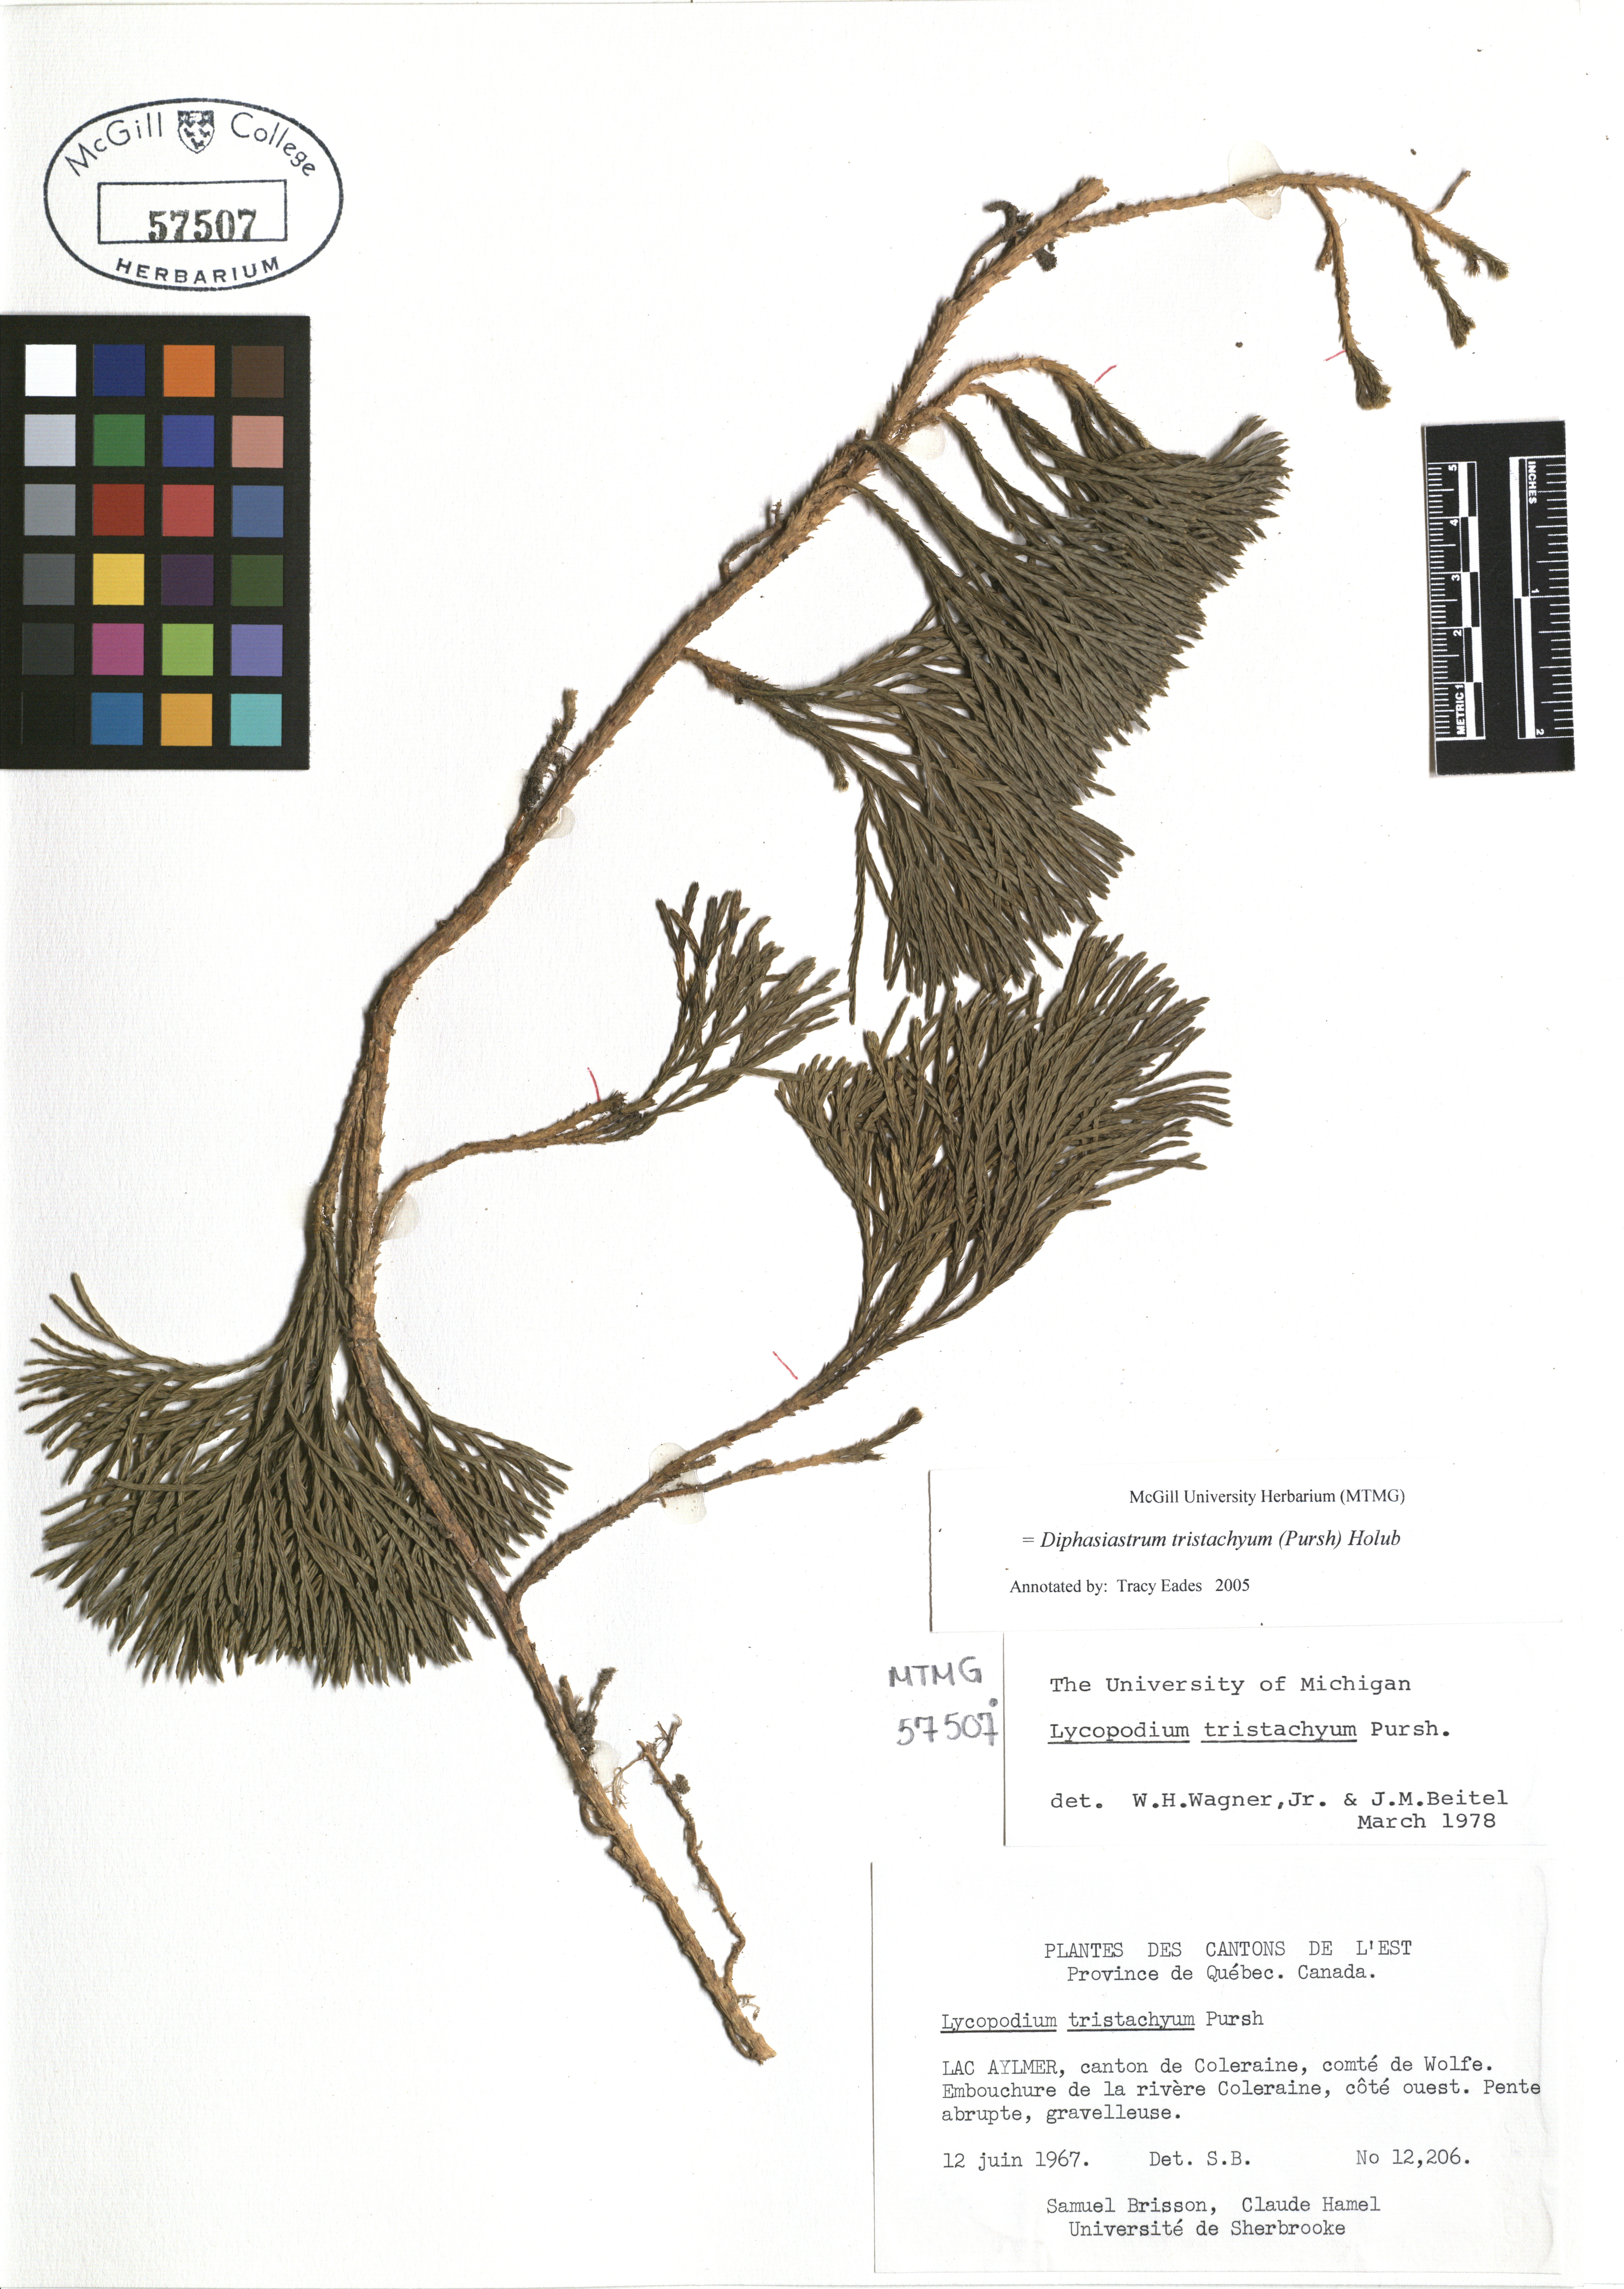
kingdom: Plantae
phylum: Tracheophyta
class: Lycopodiopsida
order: Lycopodiales
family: Lycopodiaceae
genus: Diphasiastrum
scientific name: Diphasiastrum tristachyum
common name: Blue ground-cedar
